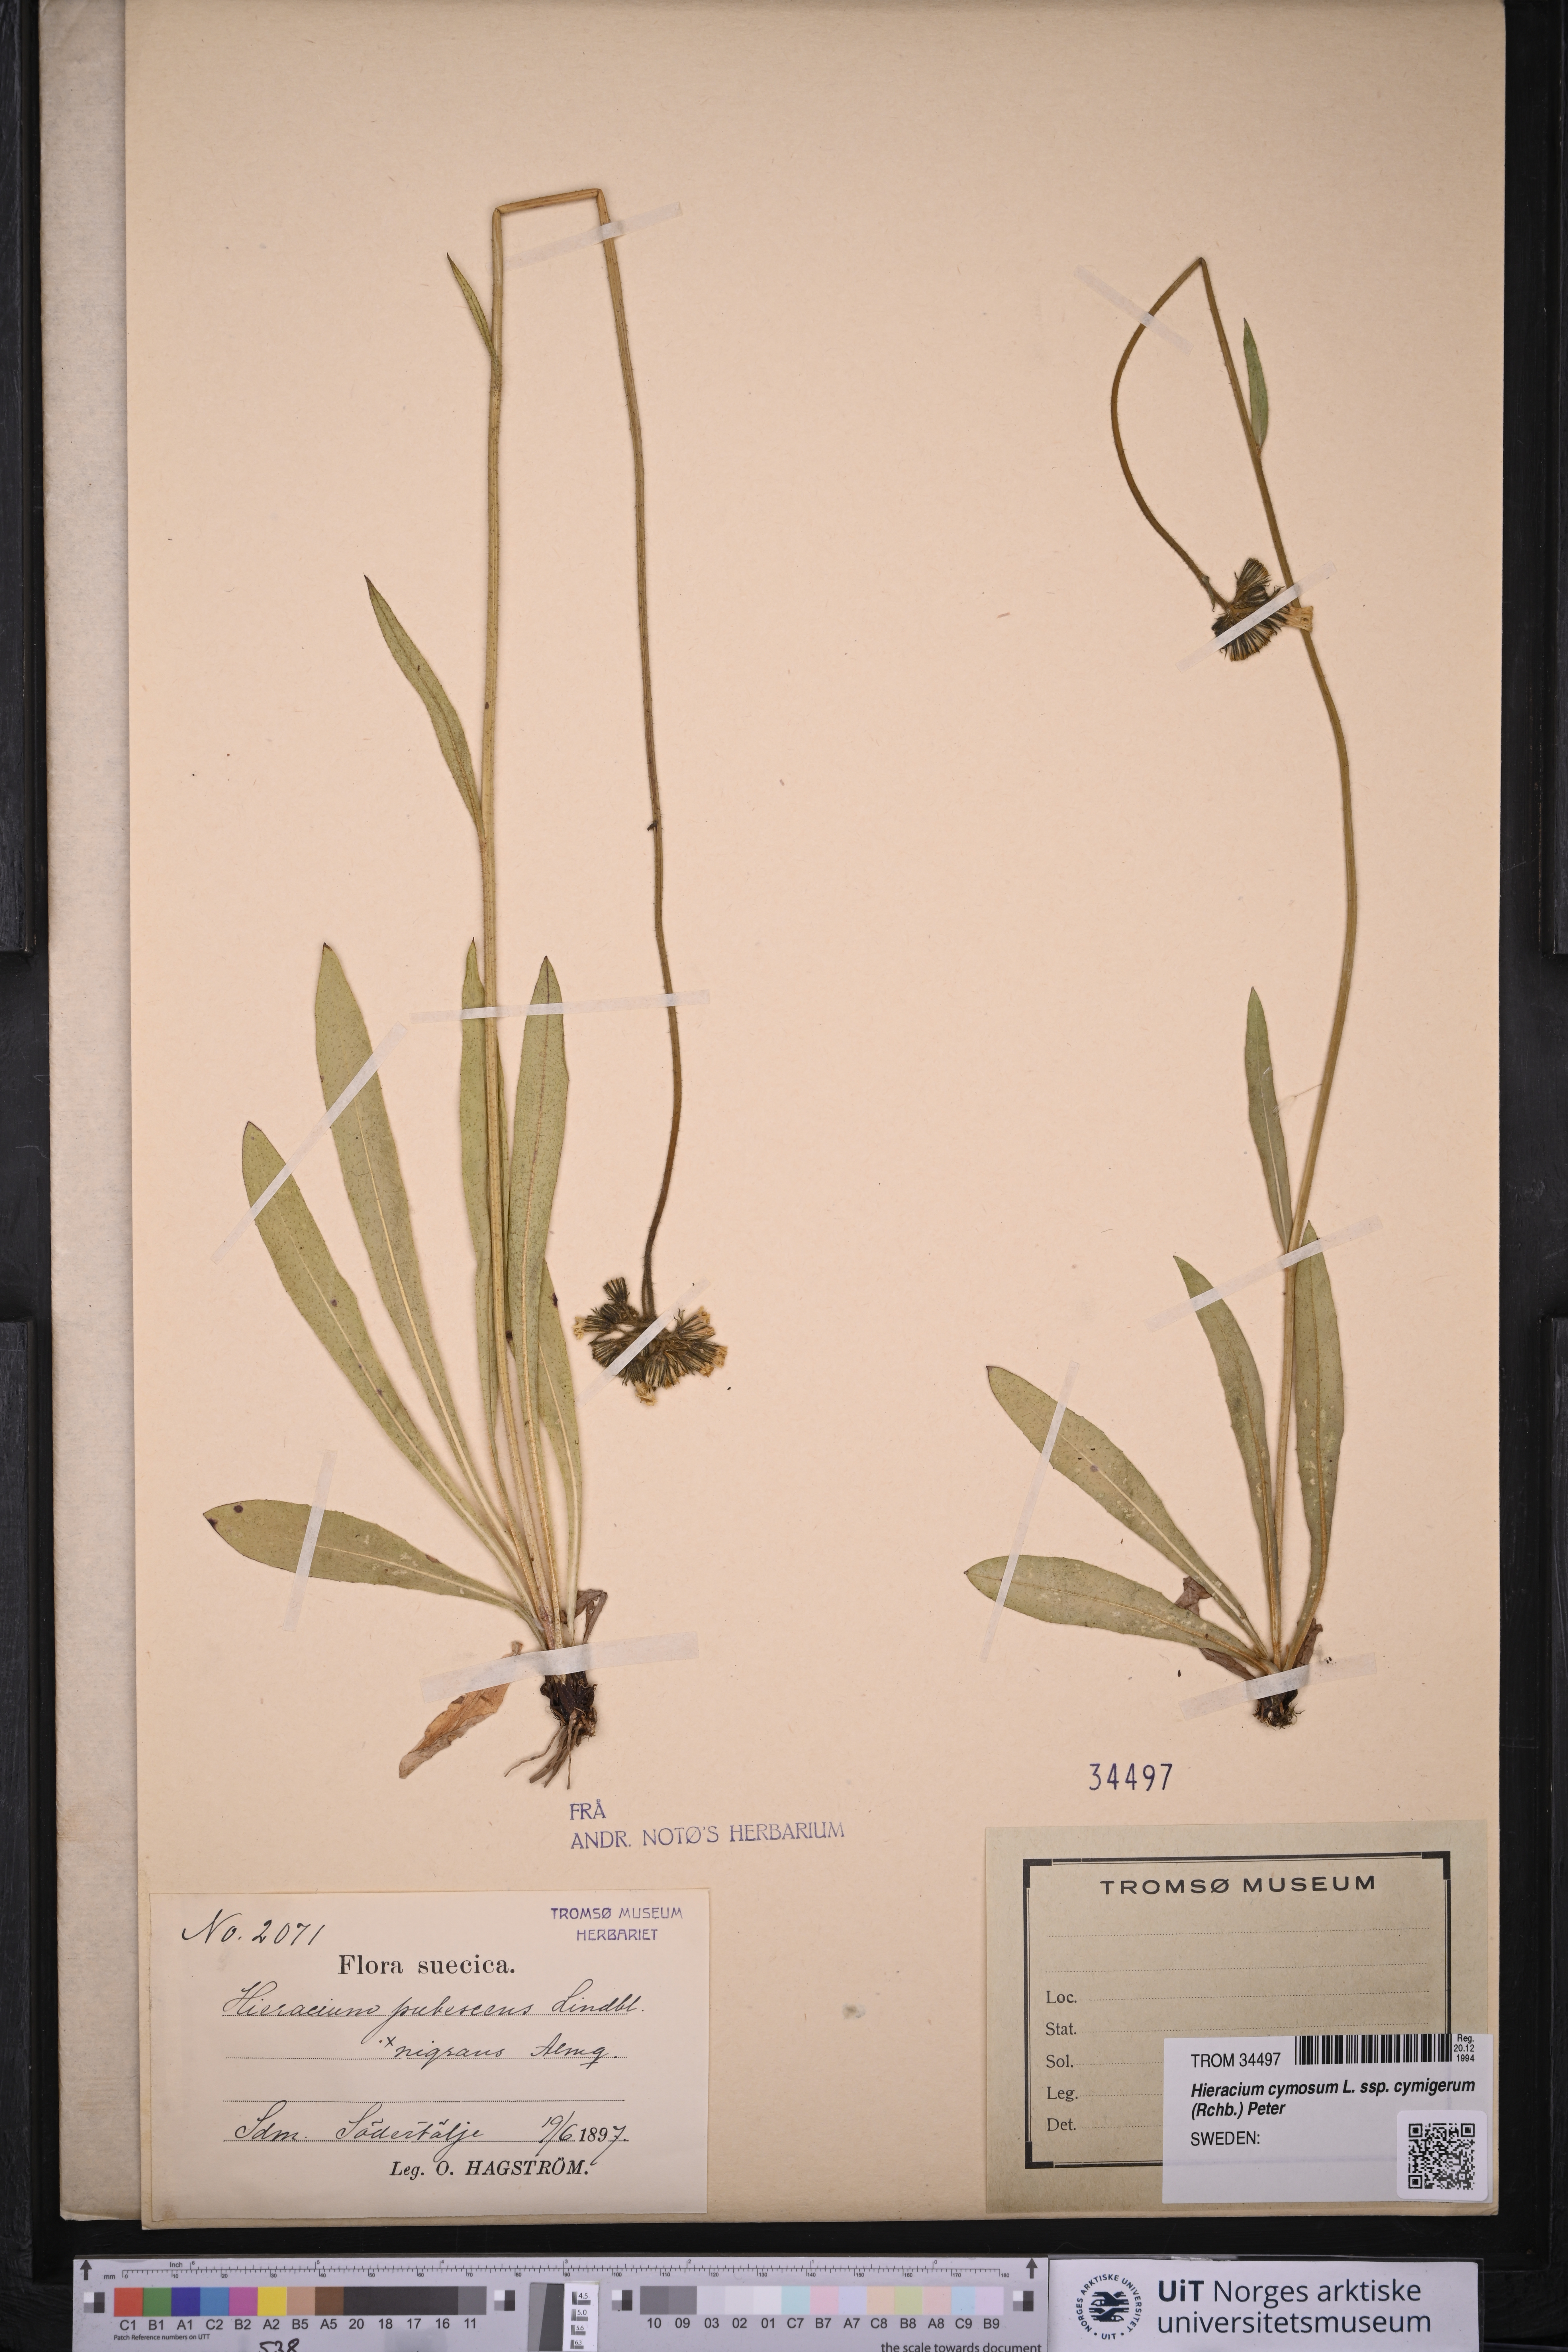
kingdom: Plantae
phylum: Tracheophyta
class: Magnoliopsida
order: Asterales
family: Asteraceae
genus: Pilosella
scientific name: Pilosella cymosa
